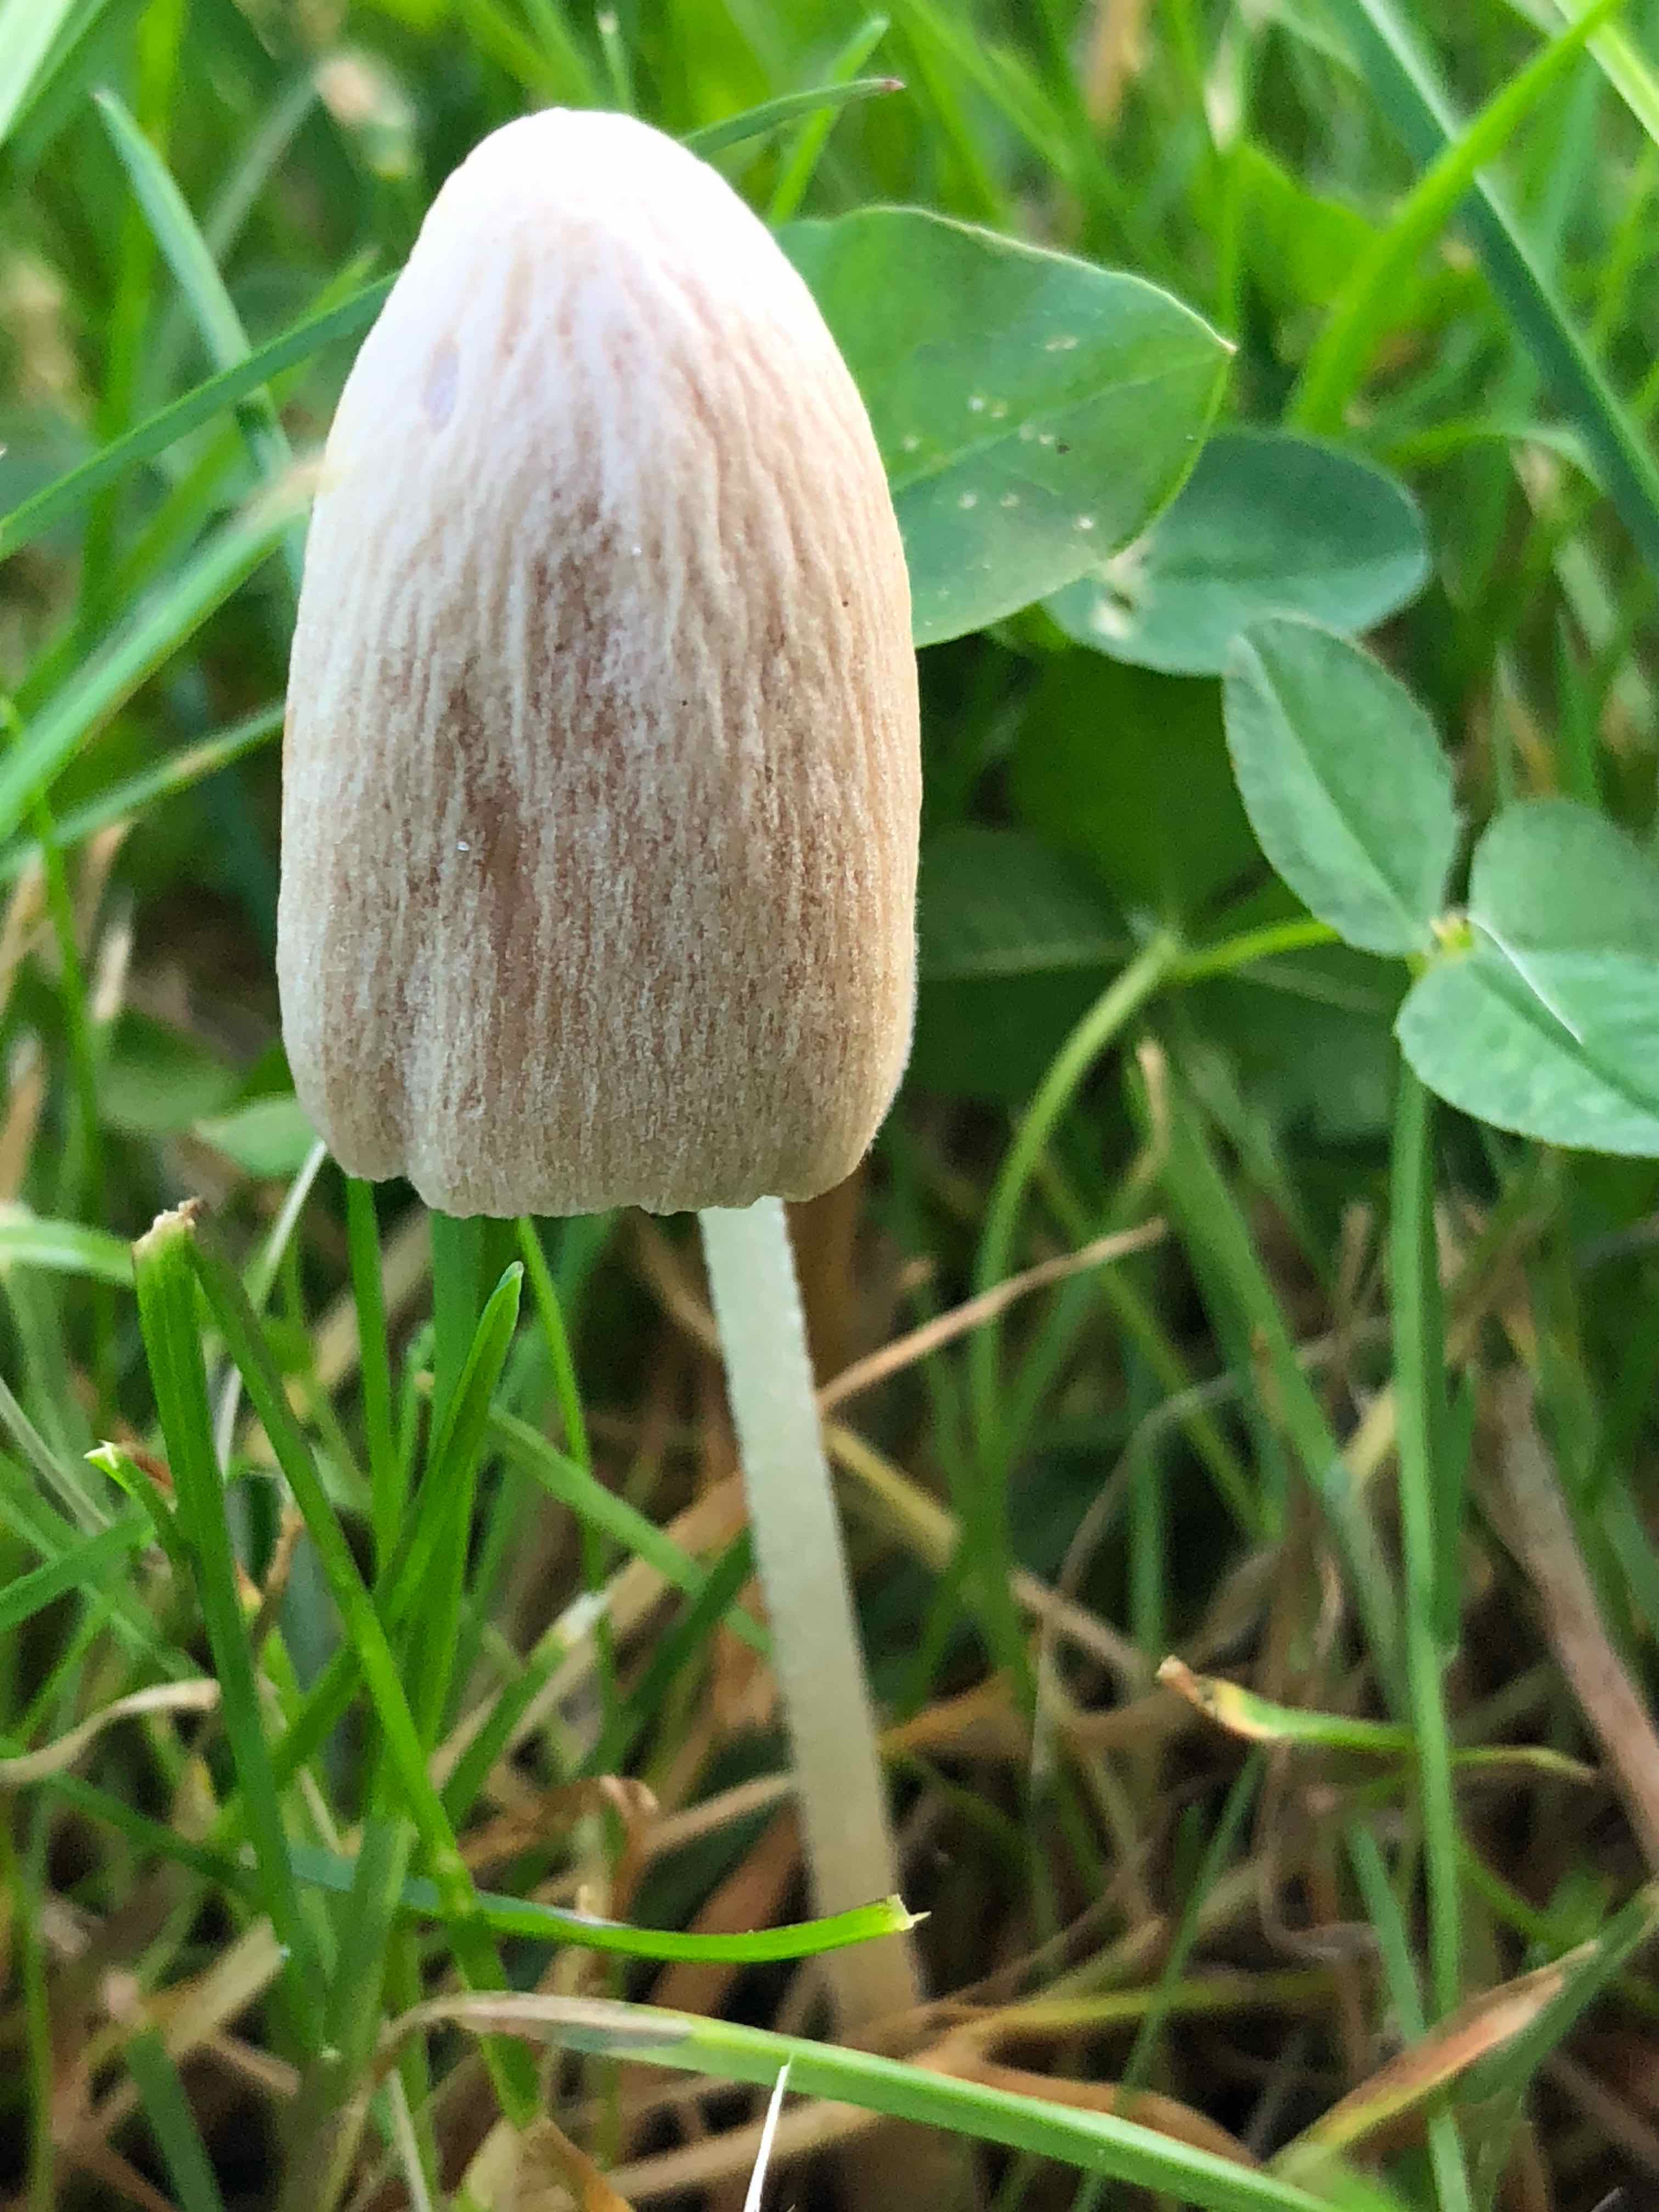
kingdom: Fungi
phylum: Basidiomycota
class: Agaricomycetes
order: Agaricales
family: Bolbitiaceae
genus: Conocybe
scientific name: Conocybe apala
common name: mælkehvid keglehat
